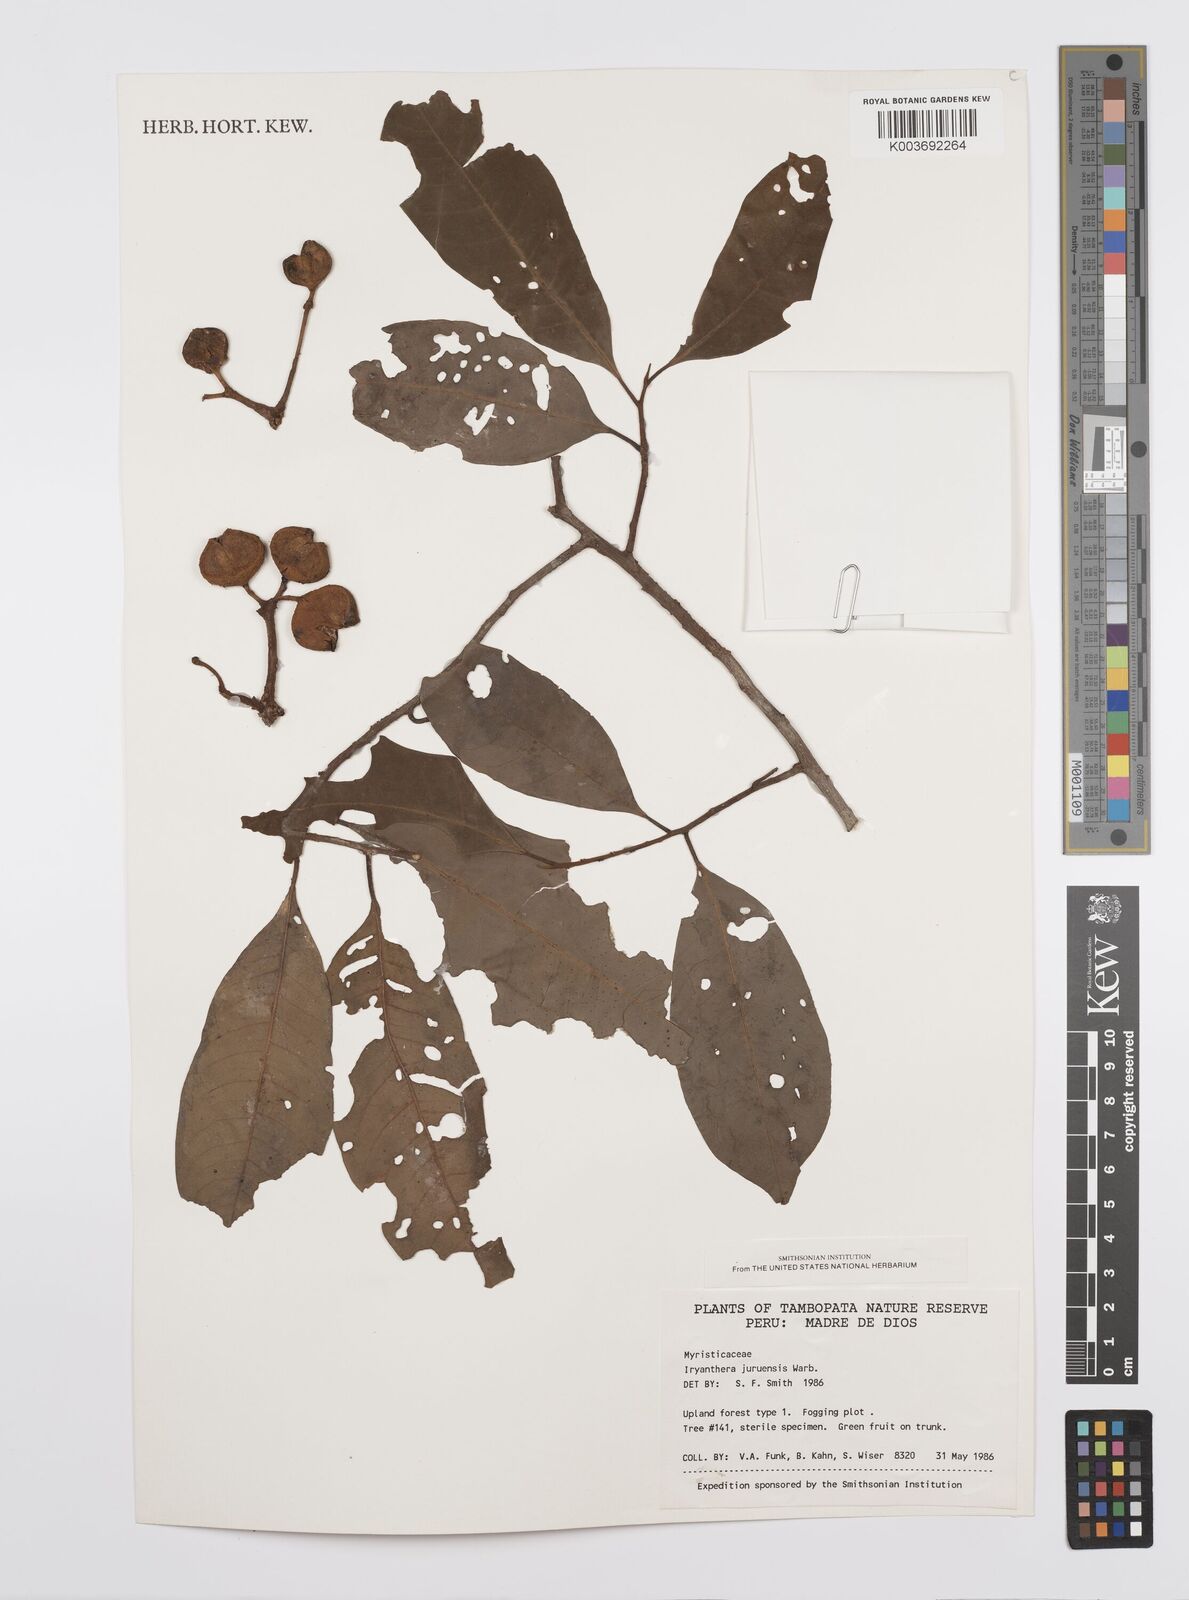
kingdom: Plantae
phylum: Tracheophyta
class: Magnoliopsida
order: Magnoliales
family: Myristicaceae
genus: Iryanthera
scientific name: Iryanthera juruensis
